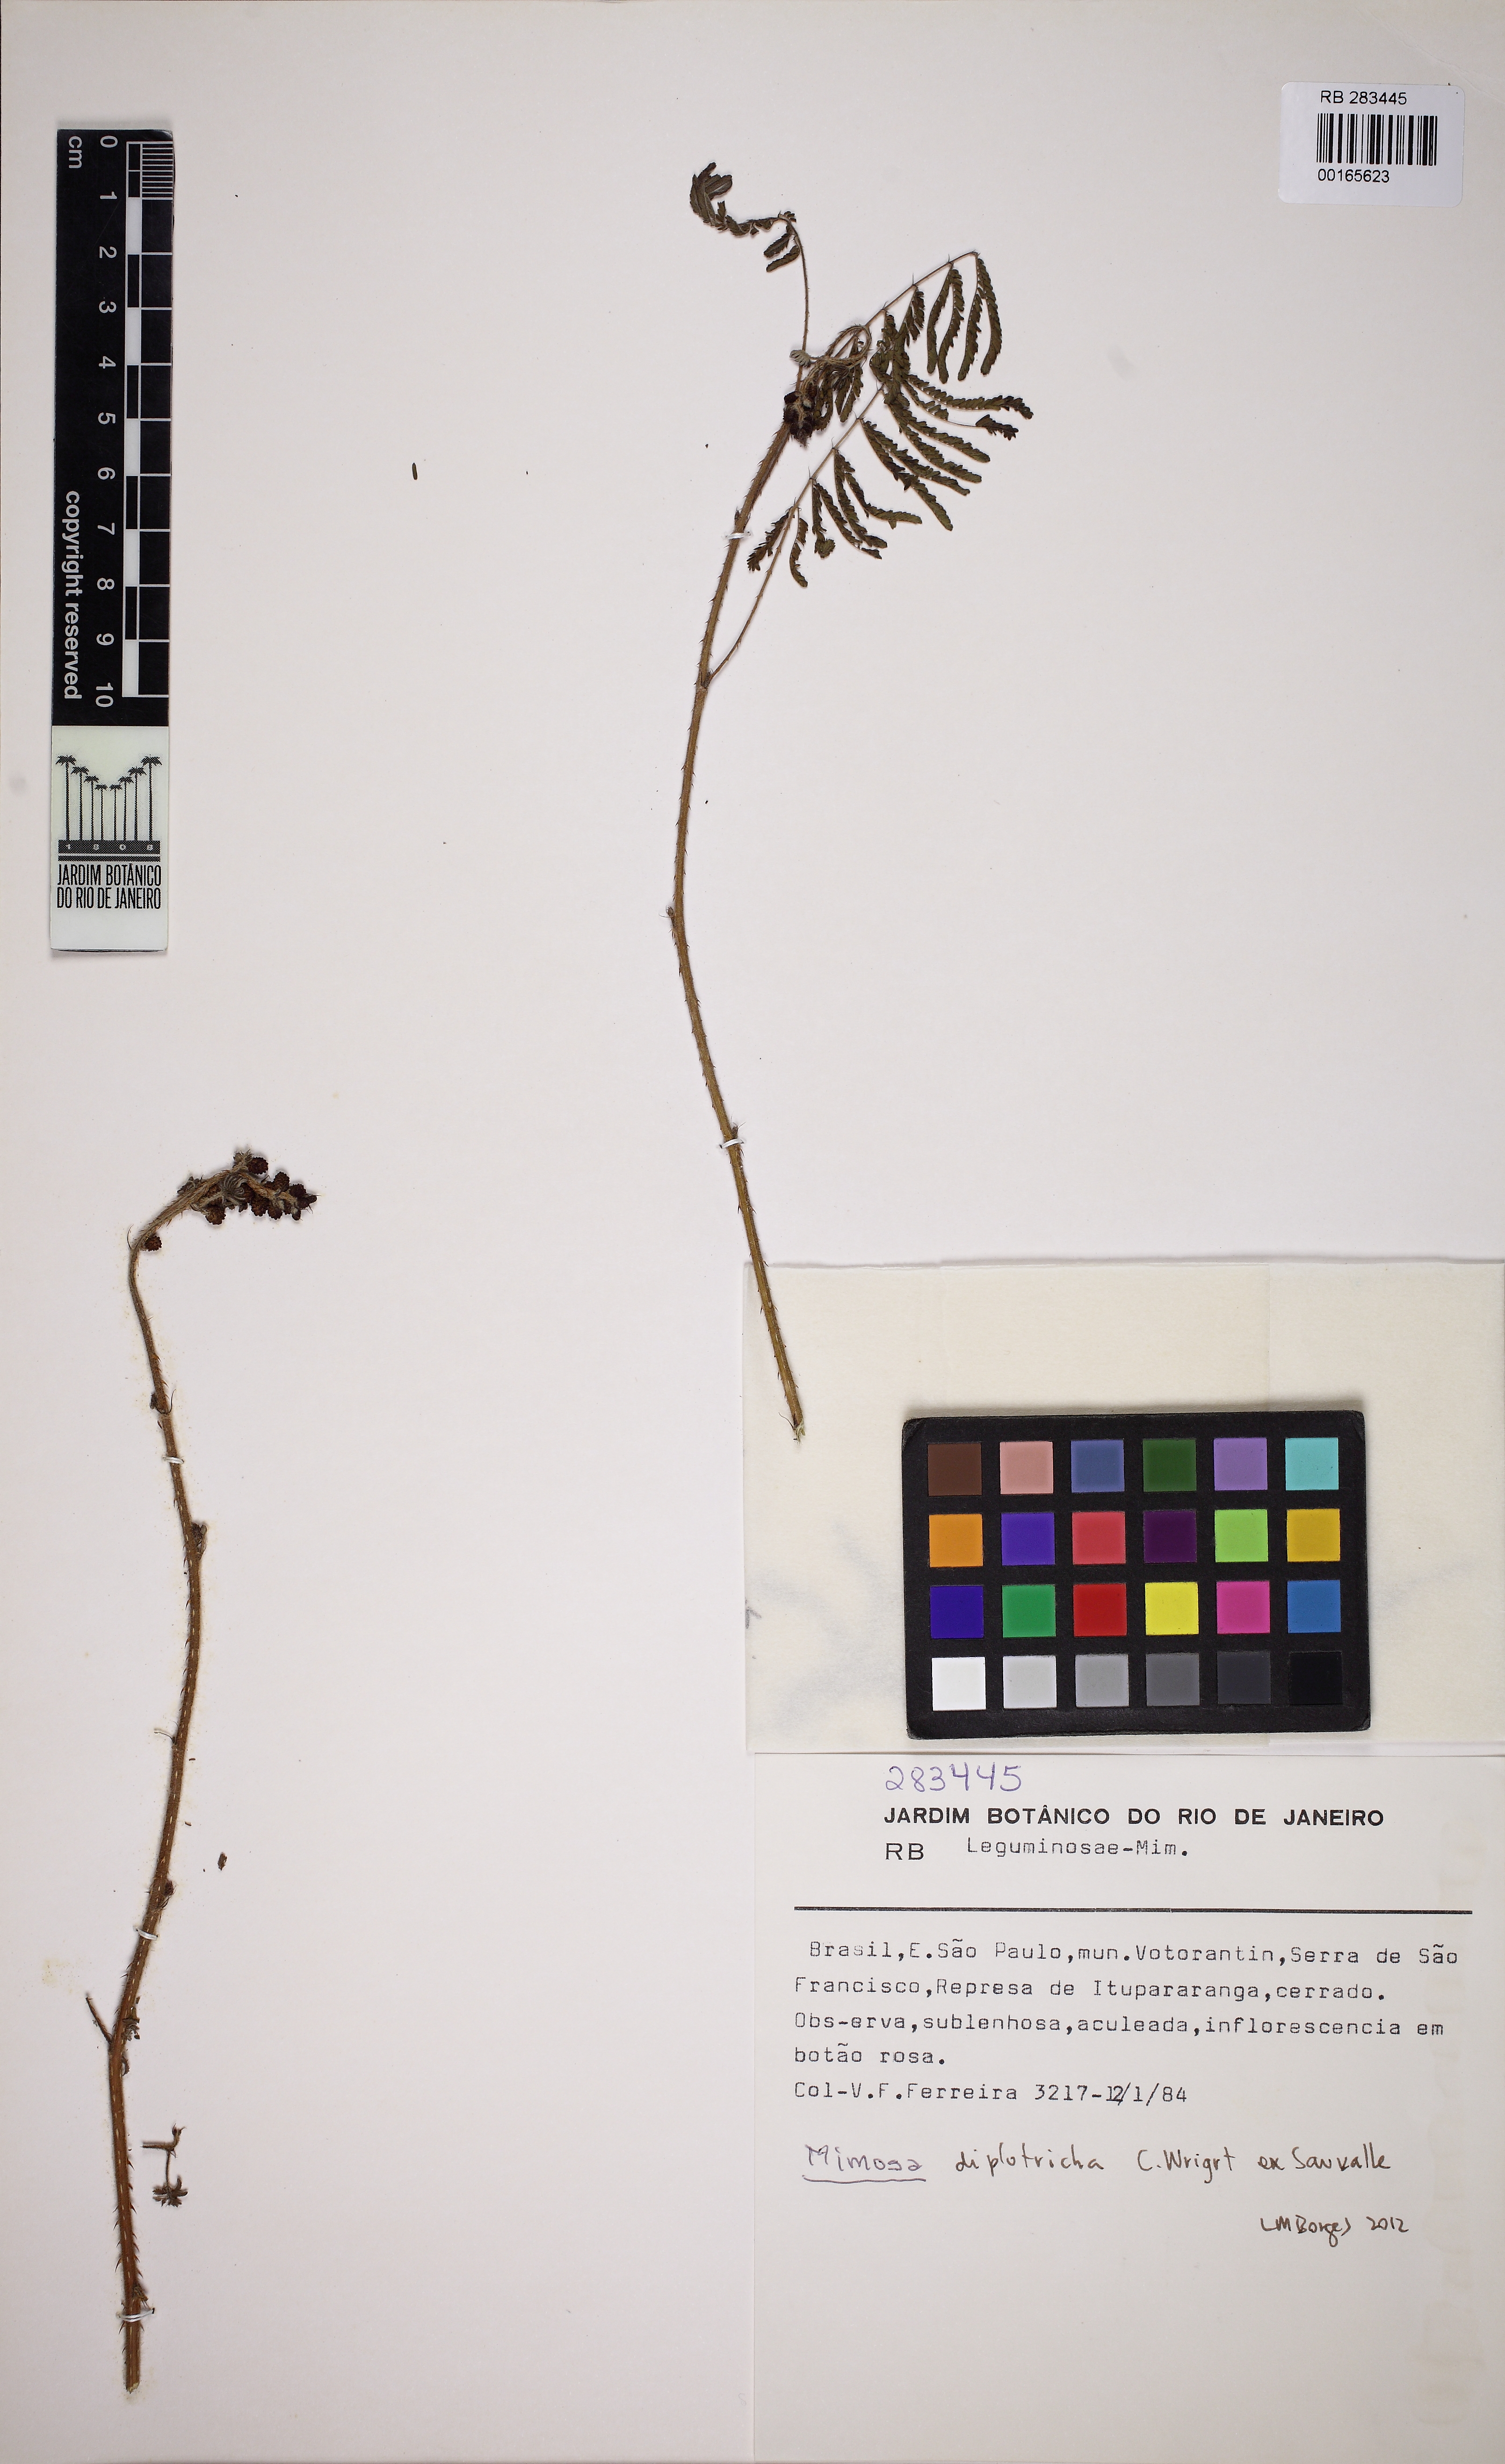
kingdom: Plantae
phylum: Tracheophyta
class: Magnoliopsida
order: Fabales
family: Fabaceae
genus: Mimosa
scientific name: Mimosa diplotricha
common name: Giant sensitive-plant
